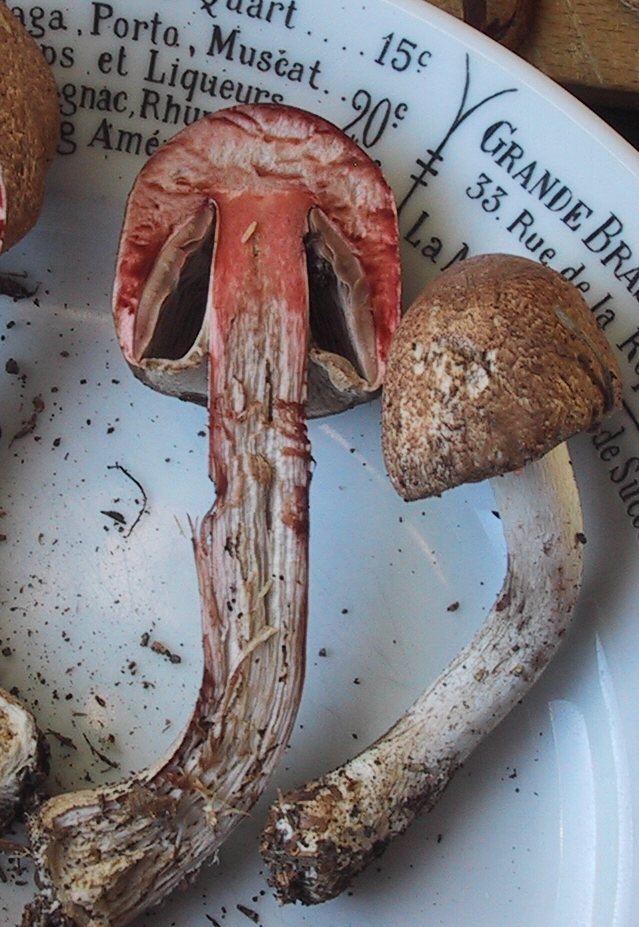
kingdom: Fungi
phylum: Basidiomycota
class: Agaricomycetes
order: Agaricales
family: Agaricaceae
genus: Agaricus
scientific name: Agaricus sylvaticus
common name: lille blod-champignon
